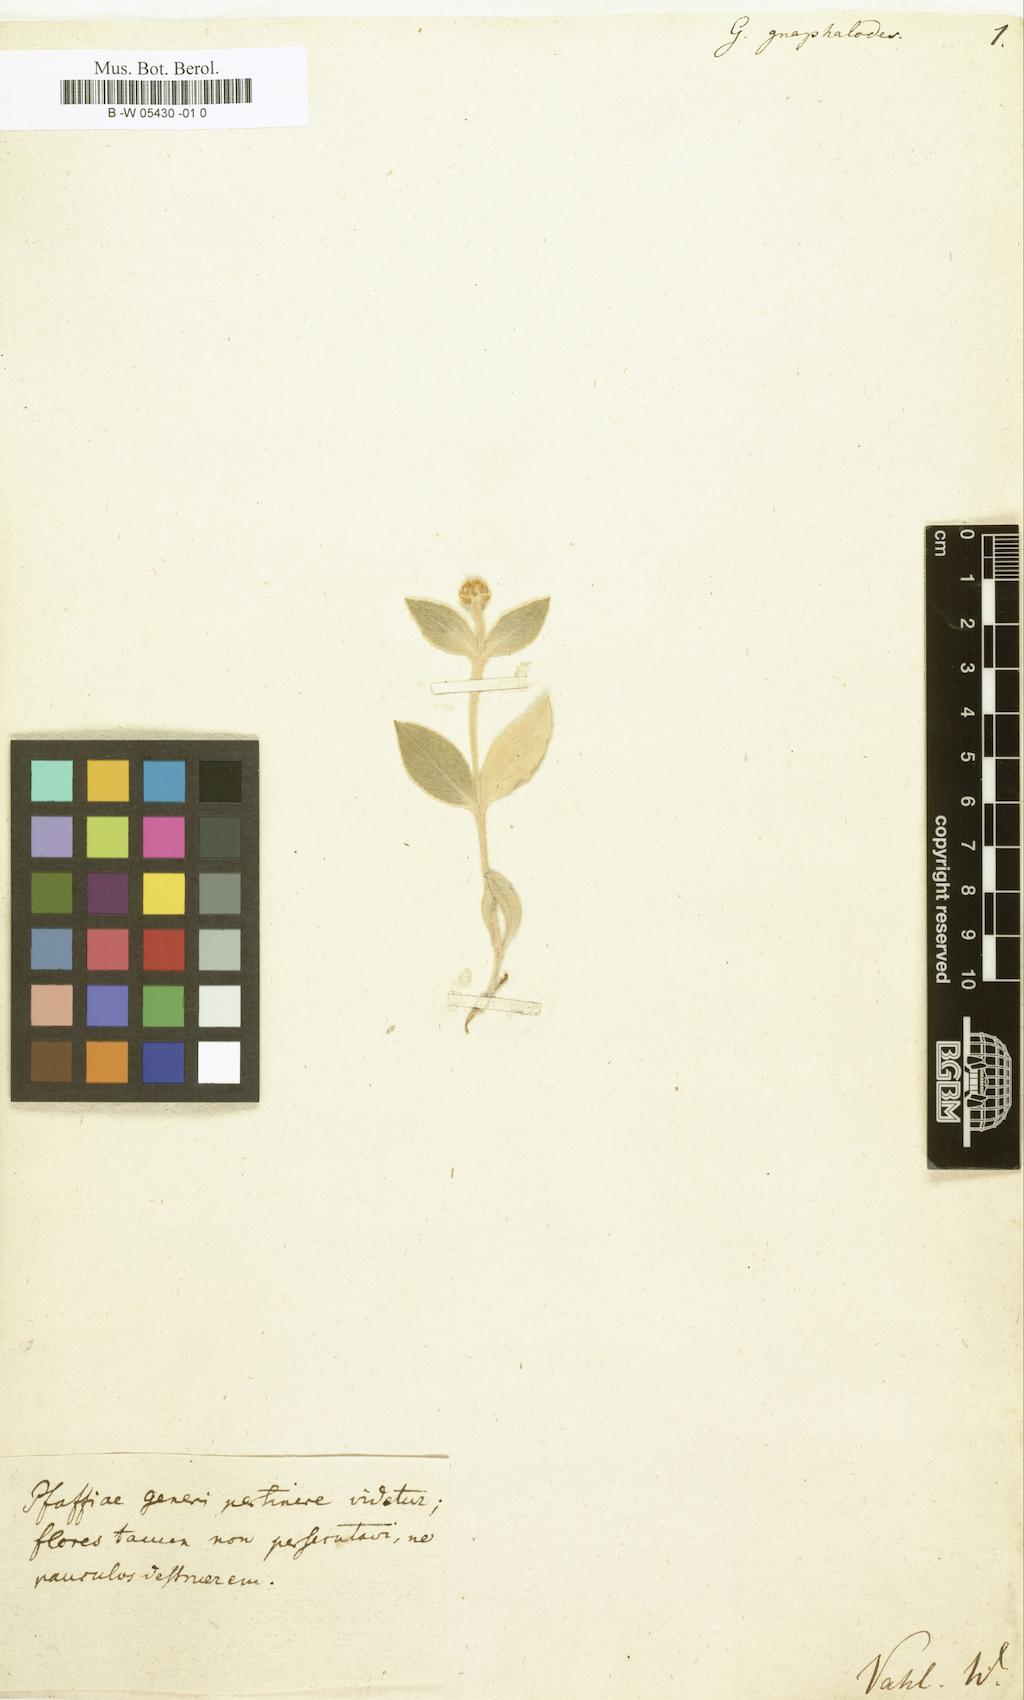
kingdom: Plantae
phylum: Tracheophyta
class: Magnoliopsida
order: Caryophyllales
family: Amaranthaceae
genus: Pfaffia
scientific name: Pfaffia gnaphaloides
